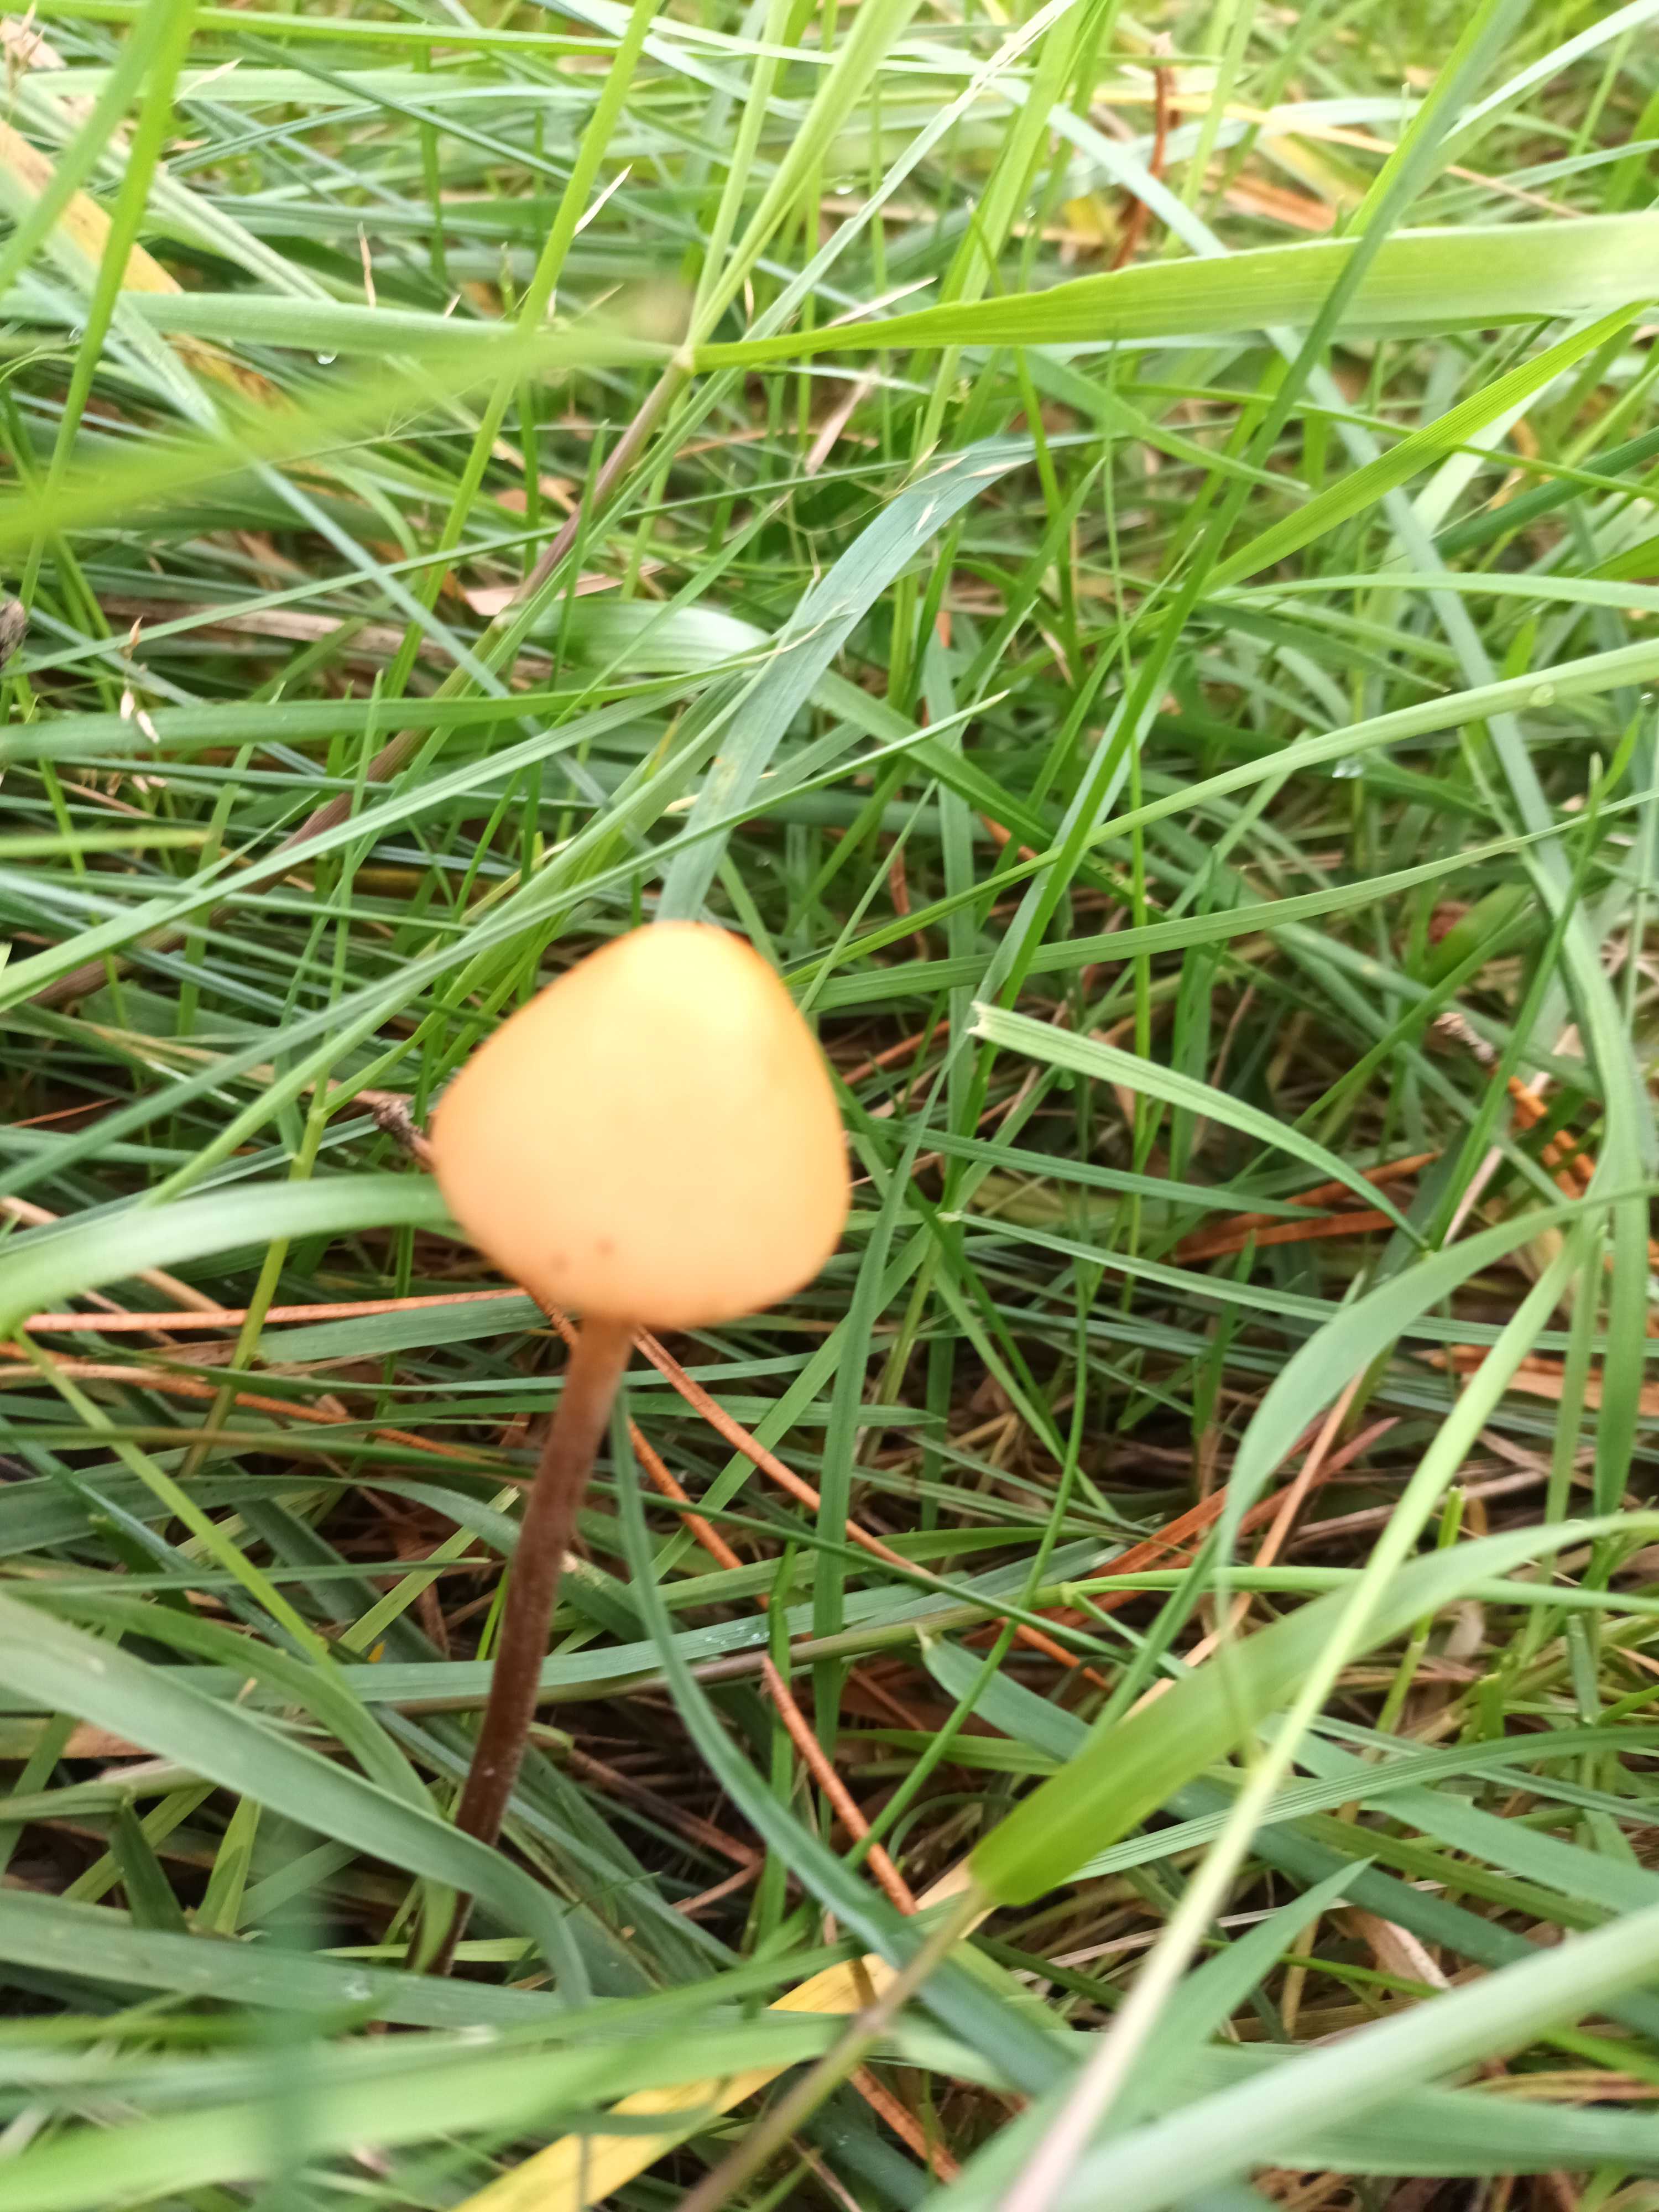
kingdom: Fungi
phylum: Basidiomycota
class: Agaricomycetes
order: Agaricales
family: Bolbitiaceae
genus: Conocybe
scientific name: Conocybe
